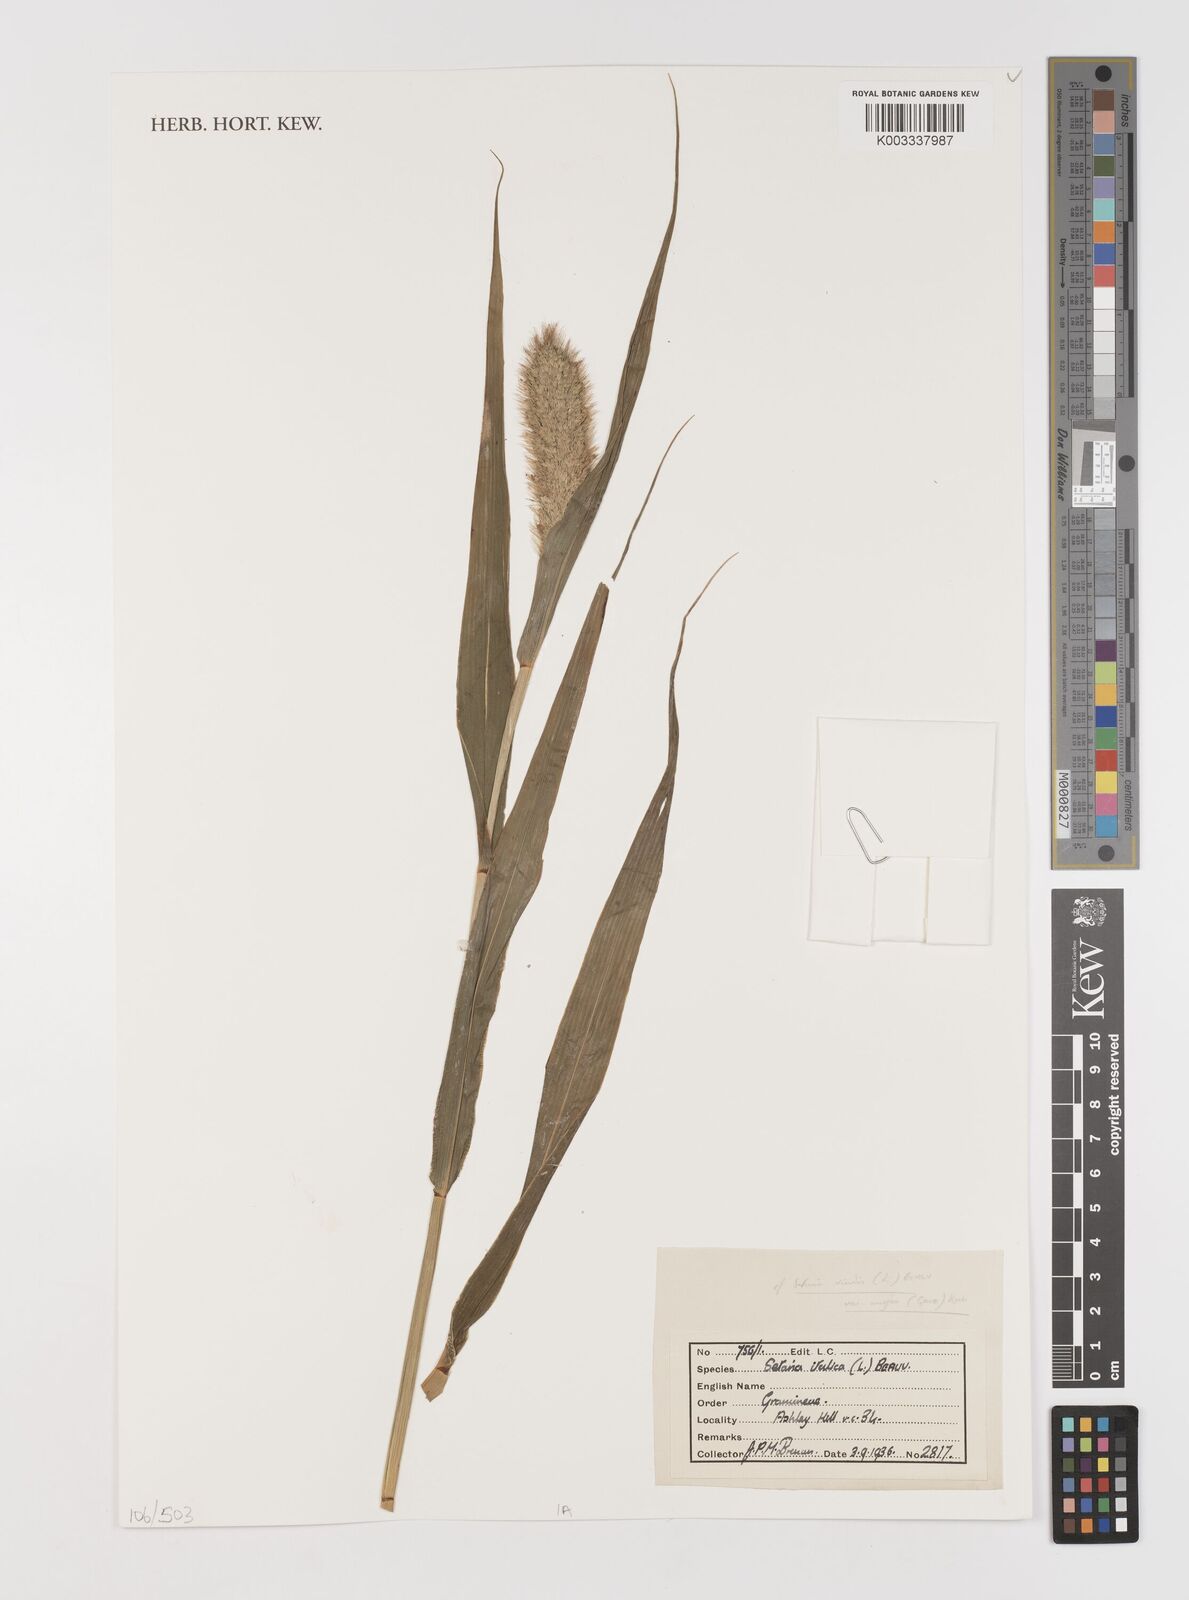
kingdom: Plantae
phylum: Tracheophyta
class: Liliopsida
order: Poales
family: Poaceae
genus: Setaria
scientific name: Setaria italica
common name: Foxtail bristle-grass
